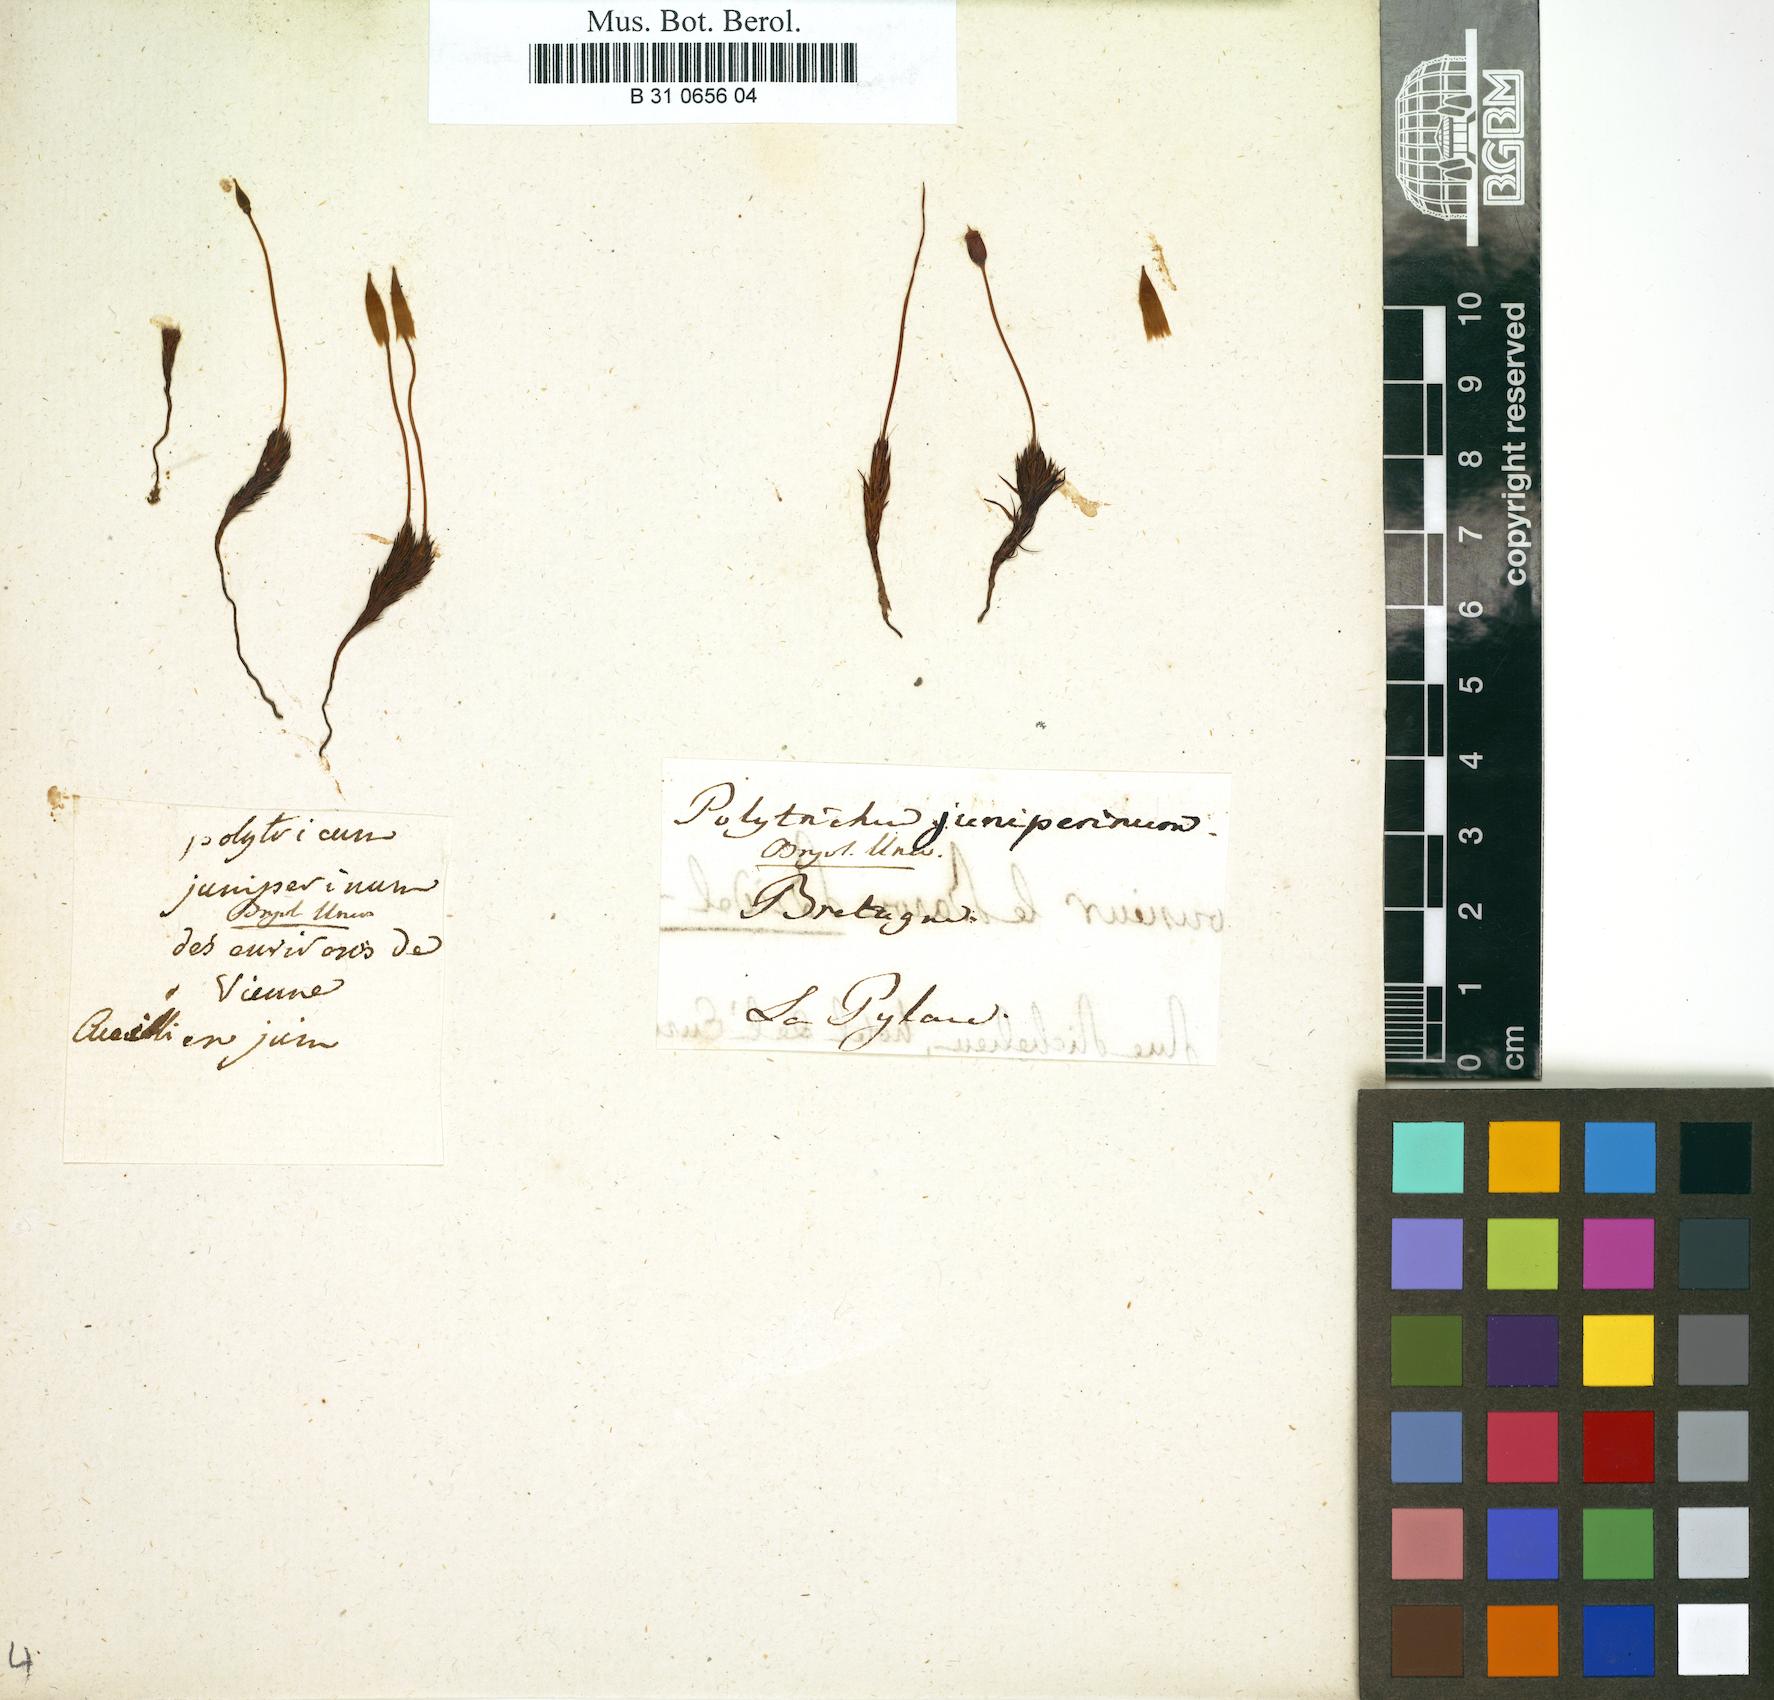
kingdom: Plantae
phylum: Bryophyta
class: Polytrichopsida
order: Polytrichales
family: Polytrichaceae
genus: Polytrichum
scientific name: Polytrichum juniperinum
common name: Juniper haircap moss
